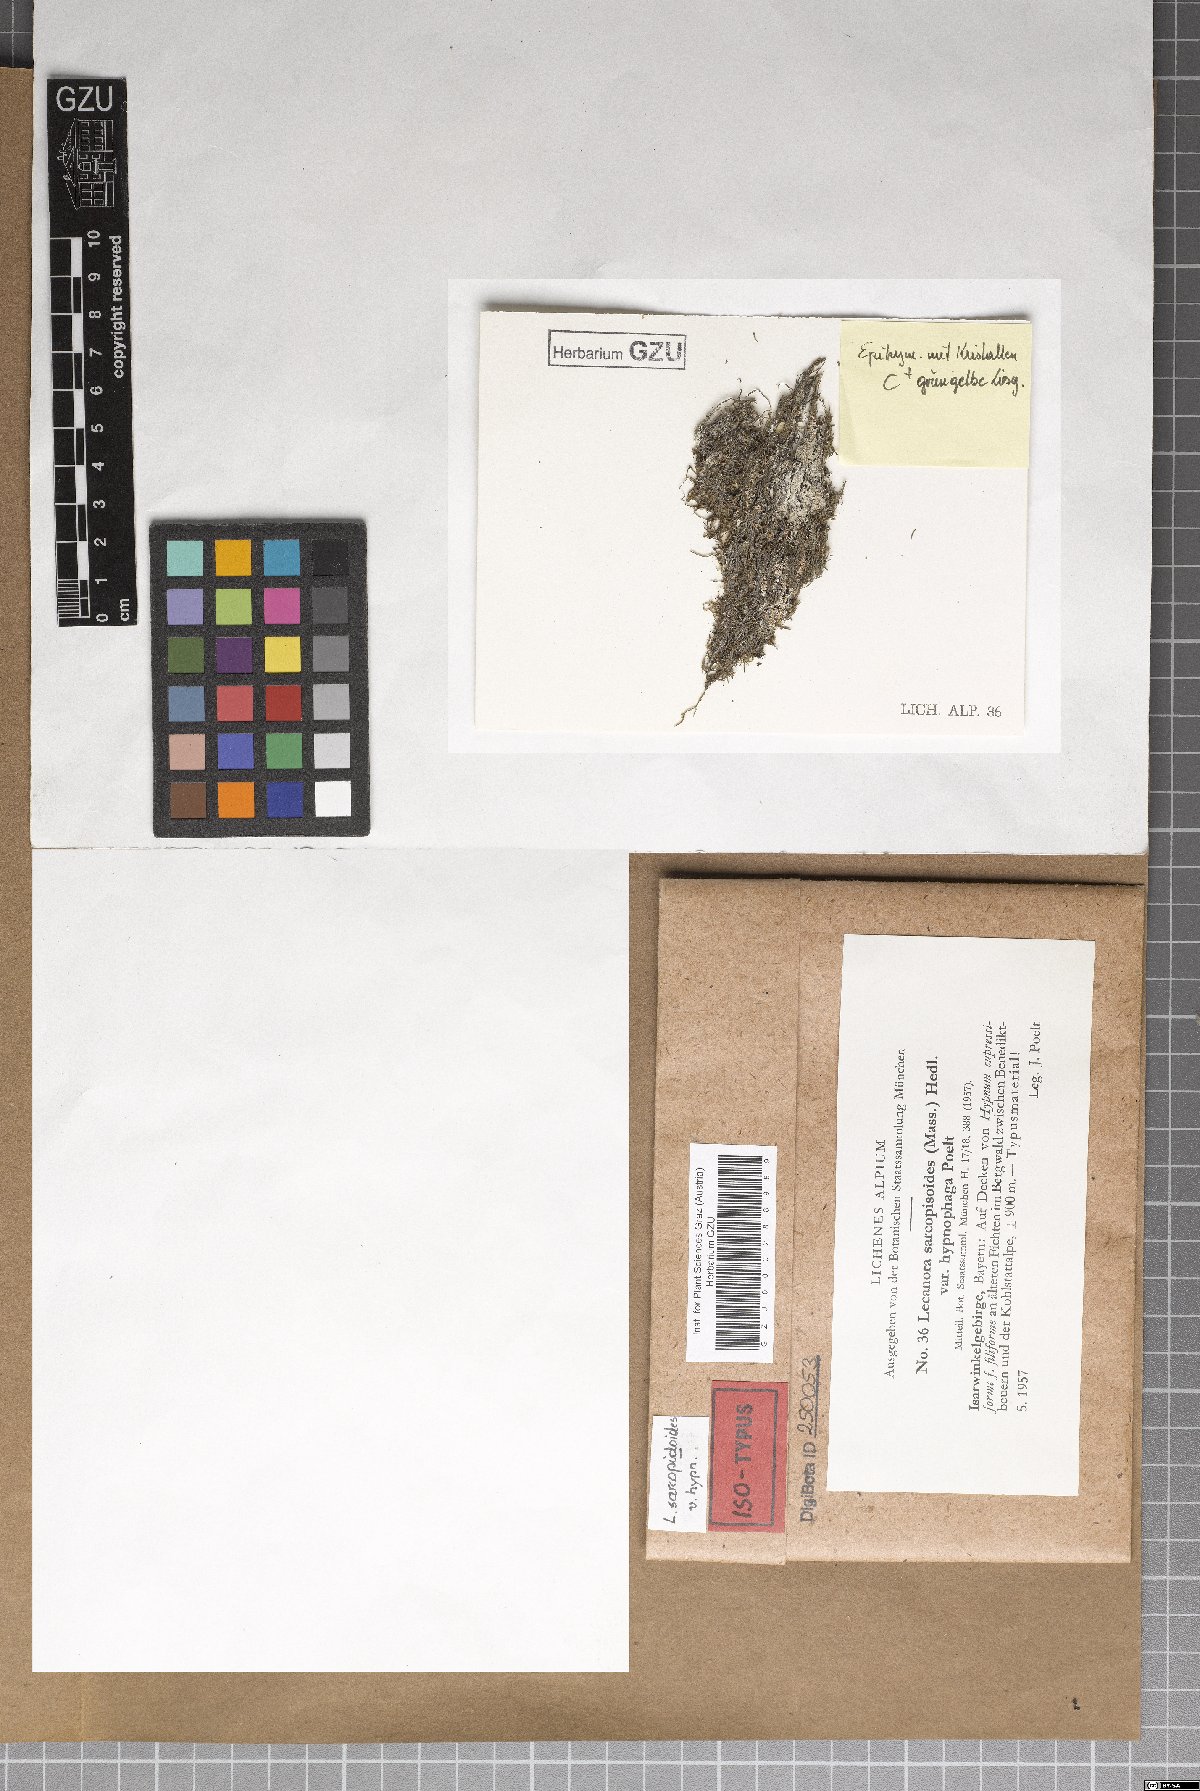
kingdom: Fungi
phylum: Ascomycota
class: Lecanoromycetes
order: Lecanorales
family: Lecanoraceae
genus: Lecanora
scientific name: Lecanora sarcopidoides
